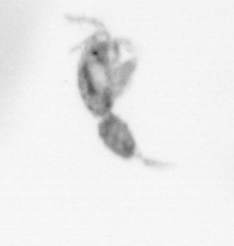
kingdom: Animalia
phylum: Arthropoda
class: Copepoda
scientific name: Copepoda
